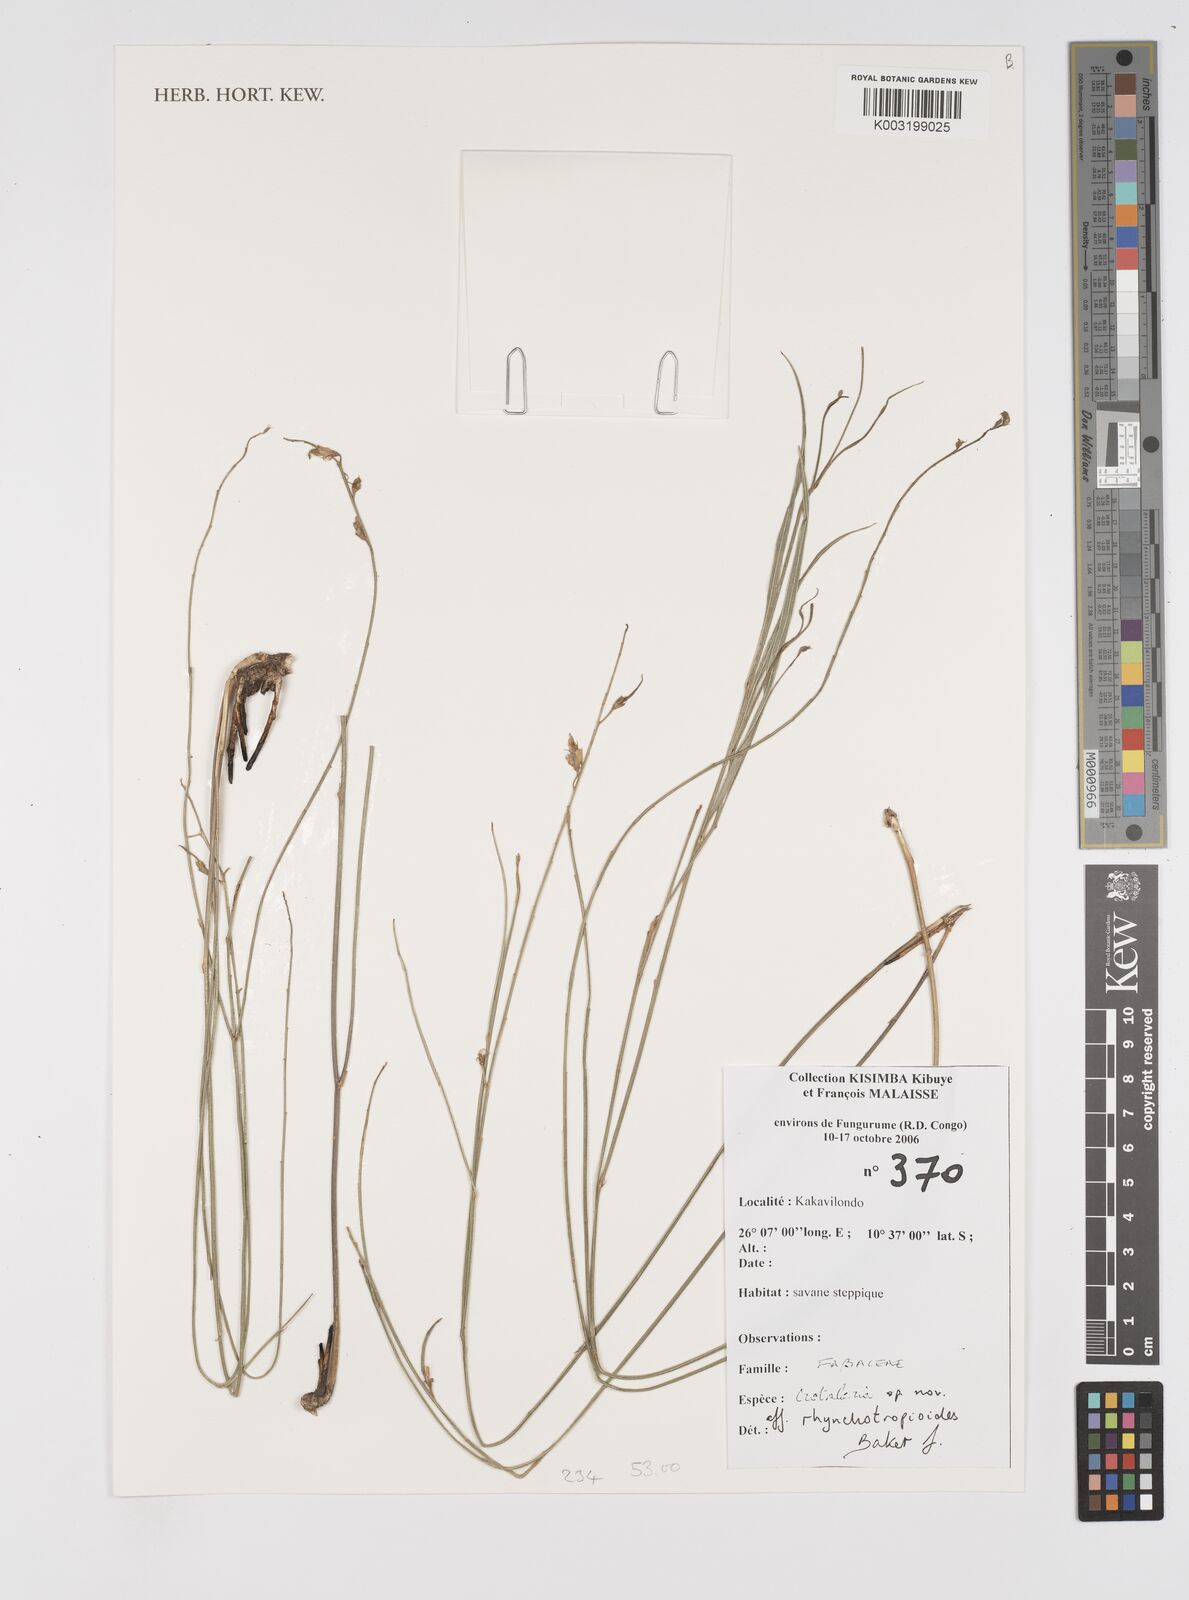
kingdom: Plantae
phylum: Tracheophyta
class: Magnoliopsida
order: Fabales
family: Fabaceae
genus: Crotalaria
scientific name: Crotalaria rhynchotropioides
